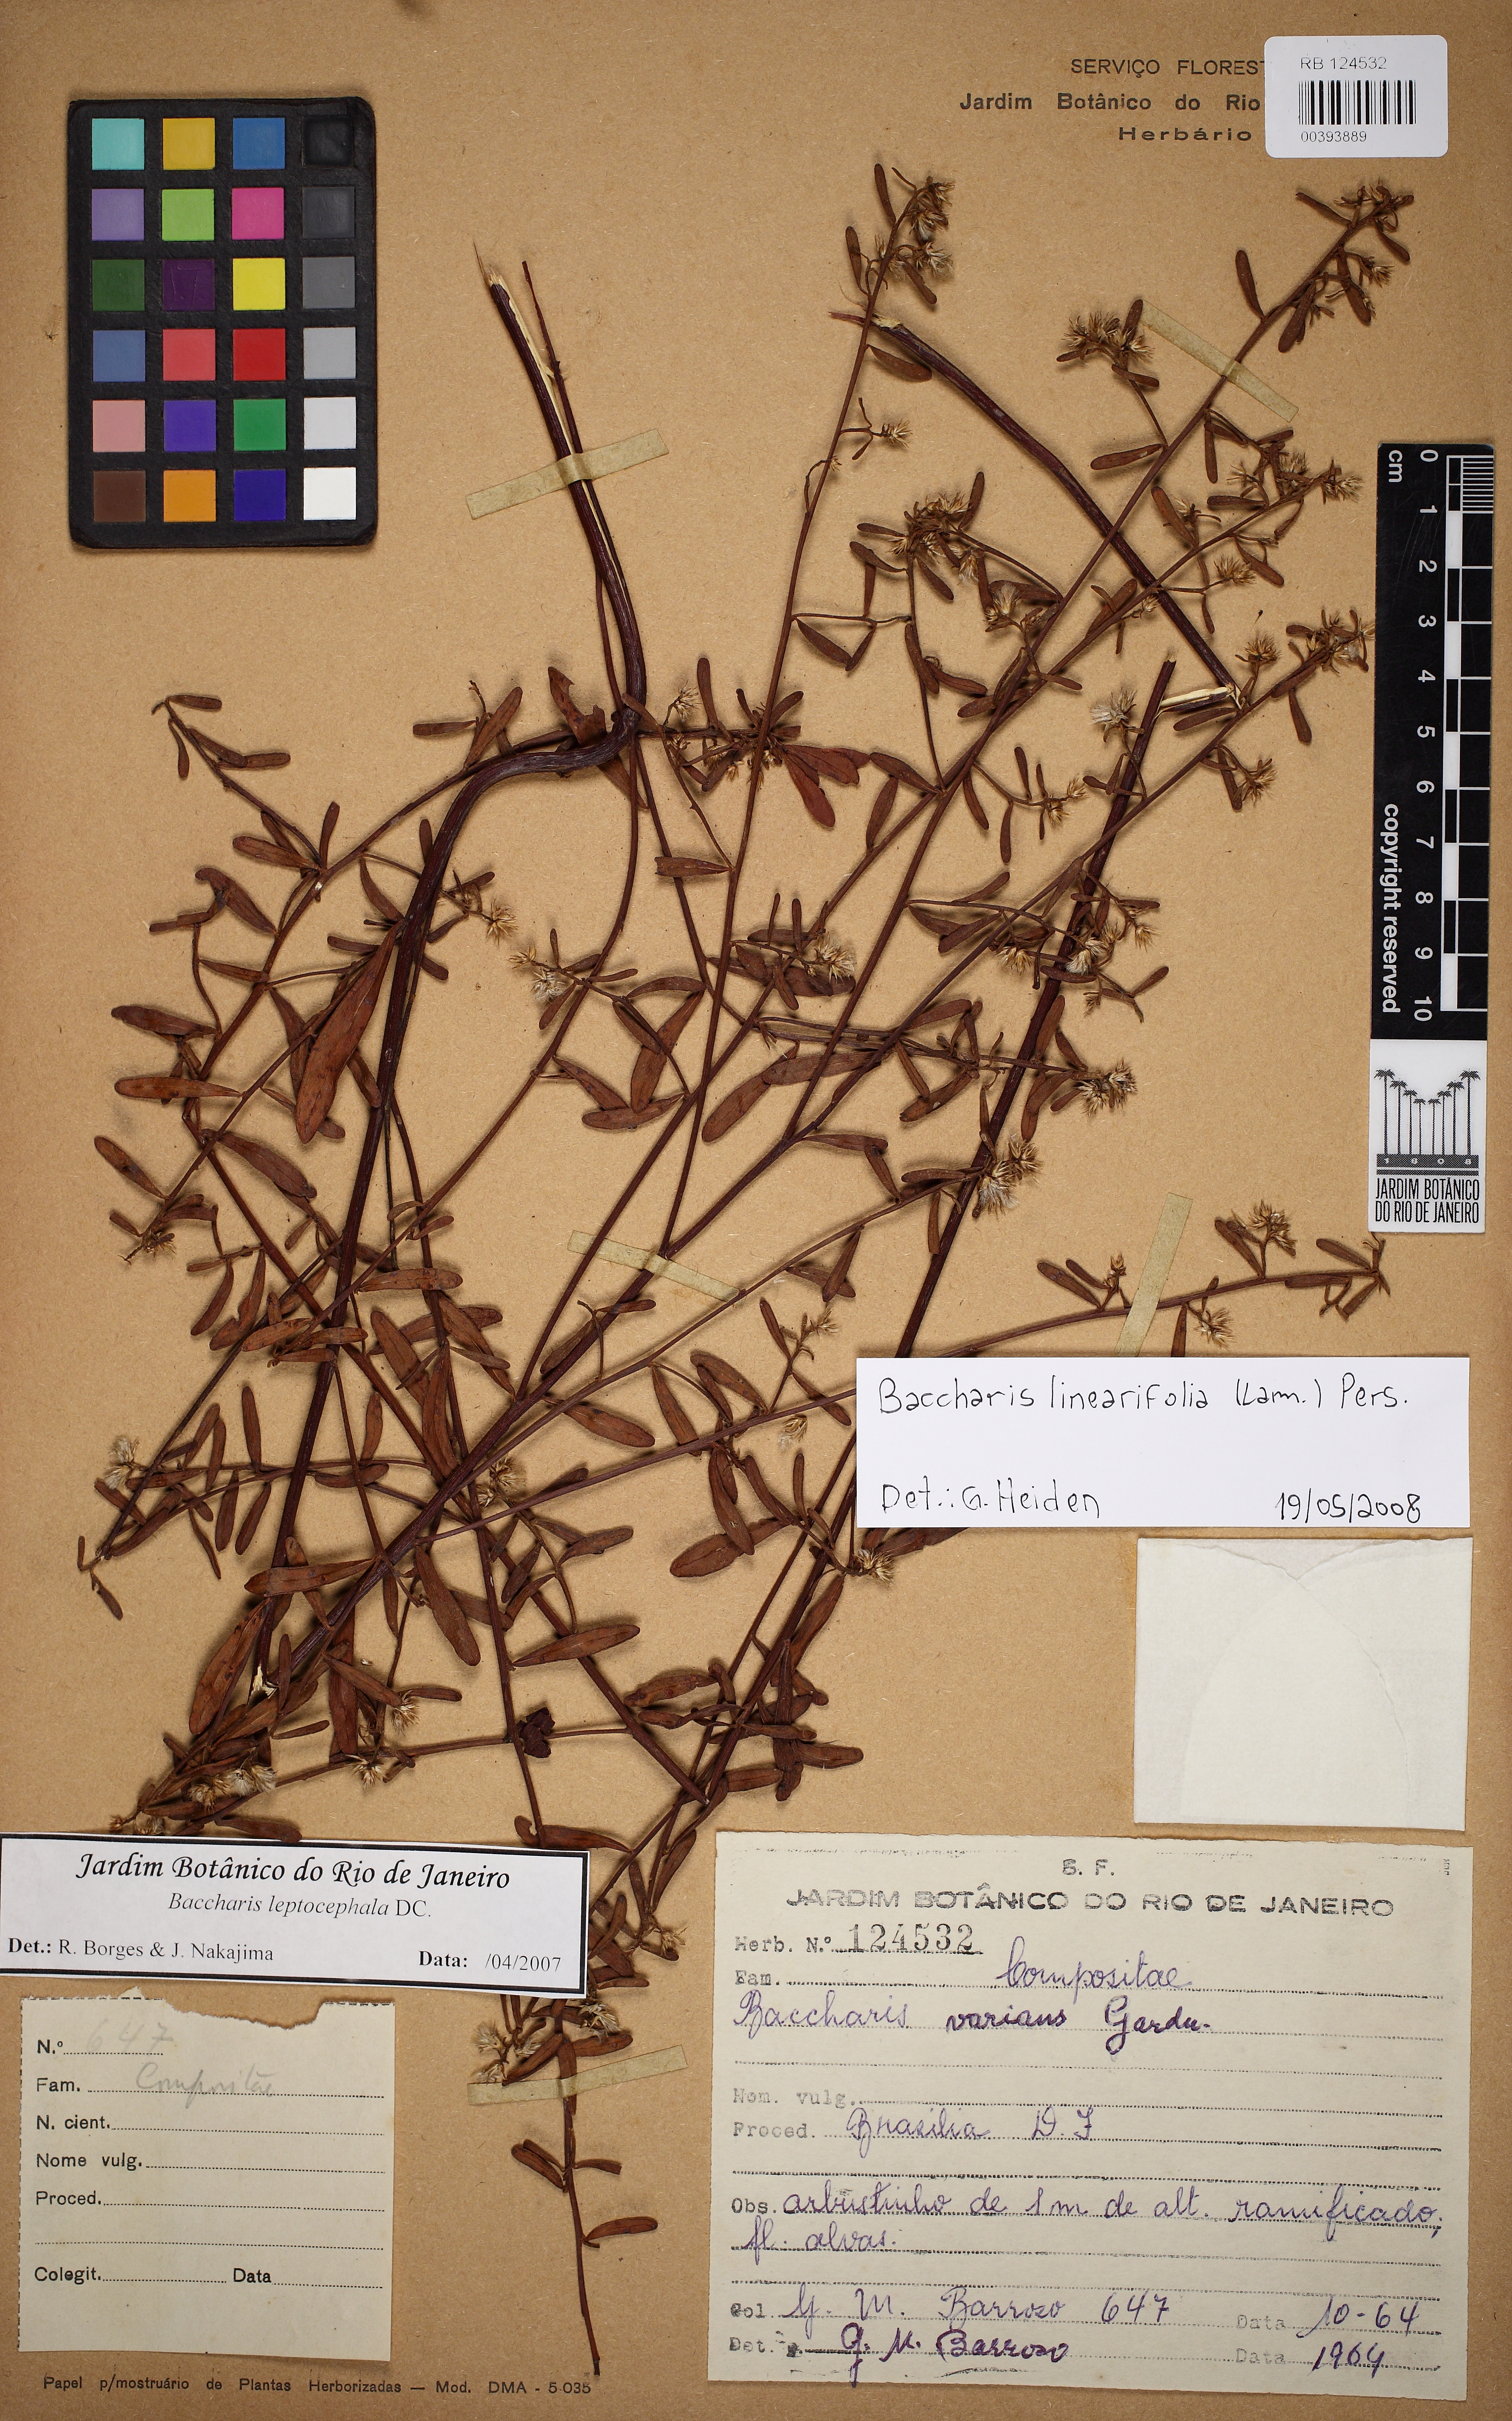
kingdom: Plantae
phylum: Tracheophyta
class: Magnoliopsida
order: Asterales
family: Asteraceae
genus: Baccharis
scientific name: Baccharis linearifolia
